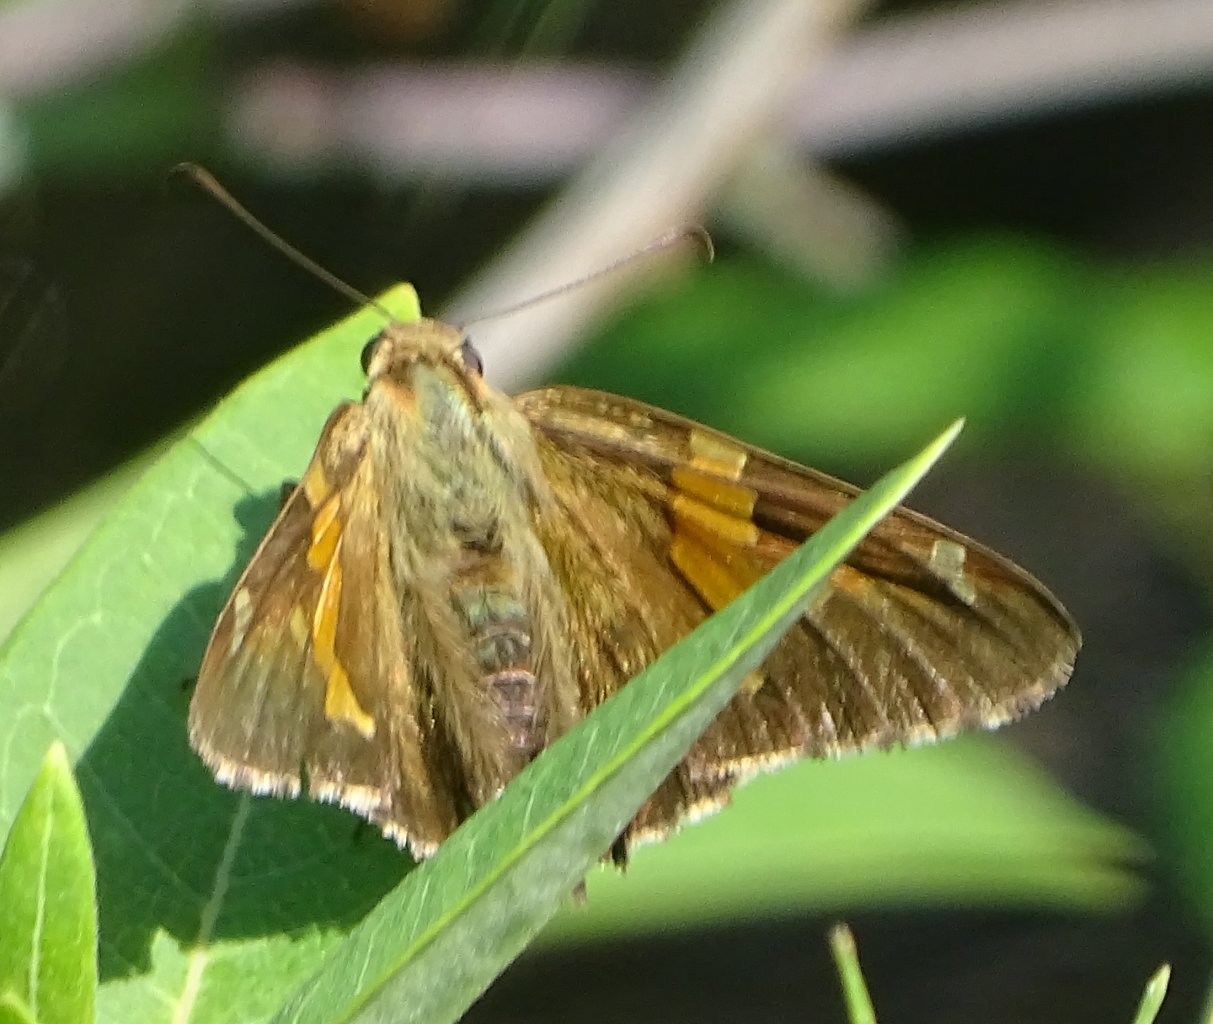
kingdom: Animalia
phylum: Arthropoda
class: Insecta
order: Lepidoptera
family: Hesperiidae
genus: Epargyreus
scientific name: Epargyreus clarus
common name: Silver-spotted Skipper
